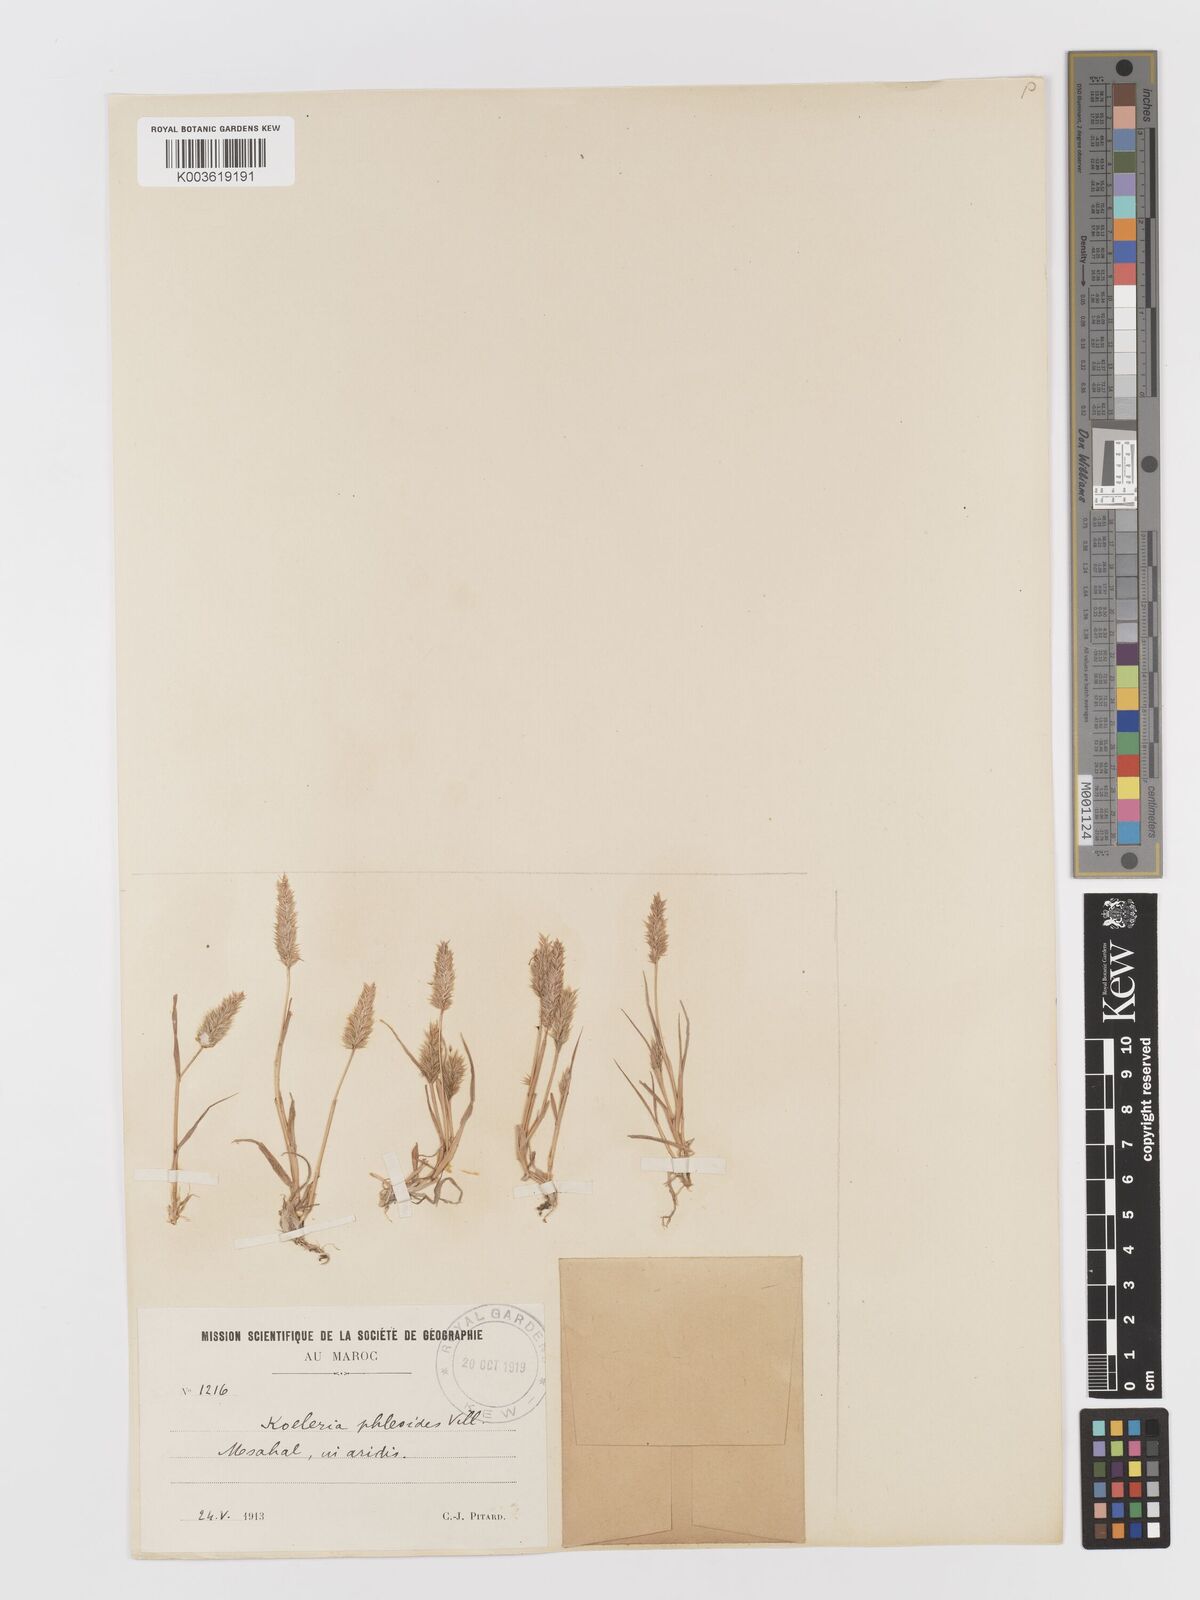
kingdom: Plantae
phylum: Tracheophyta
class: Liliopsida
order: Poales
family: Poaceae
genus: Rostraria
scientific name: Rostraria cristata
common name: Mediterranean hair-grass
